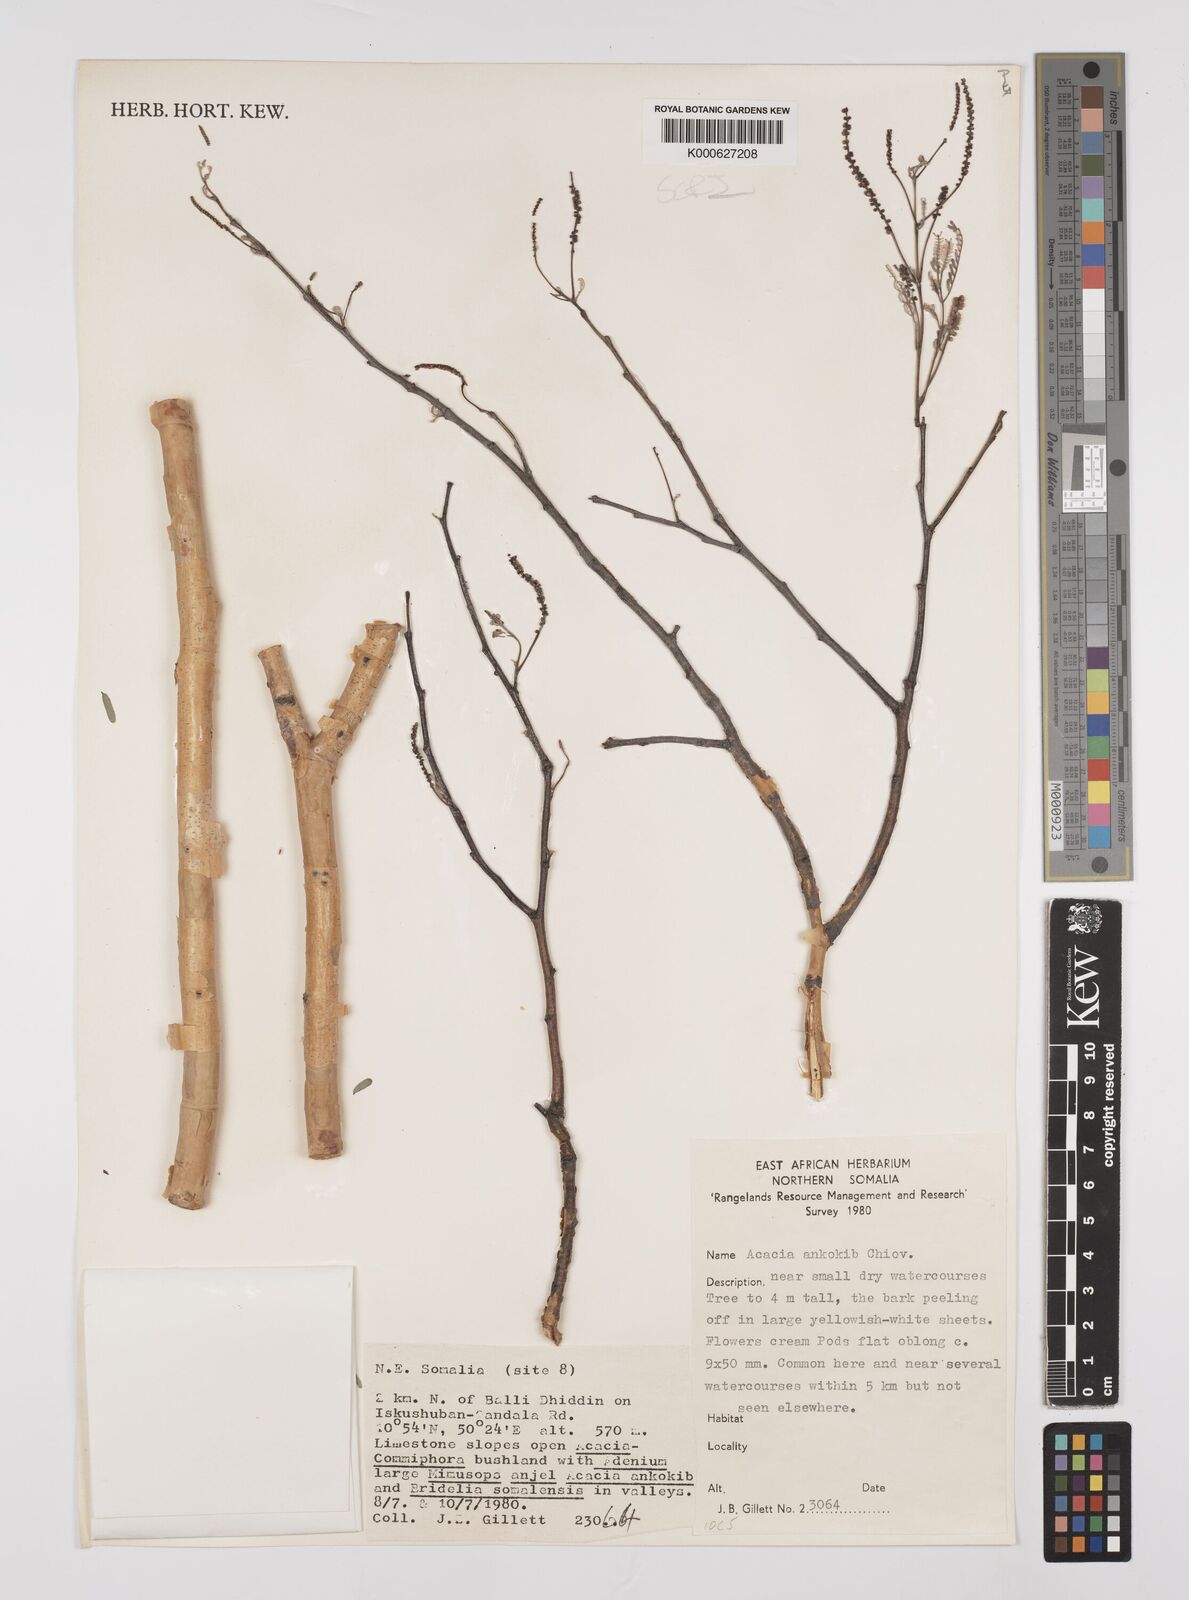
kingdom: Plantae
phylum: Tracheophyta
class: Magnoliopsida
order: Fabales
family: Fabaceae
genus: Senegalia
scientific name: Senegalia ankokib
